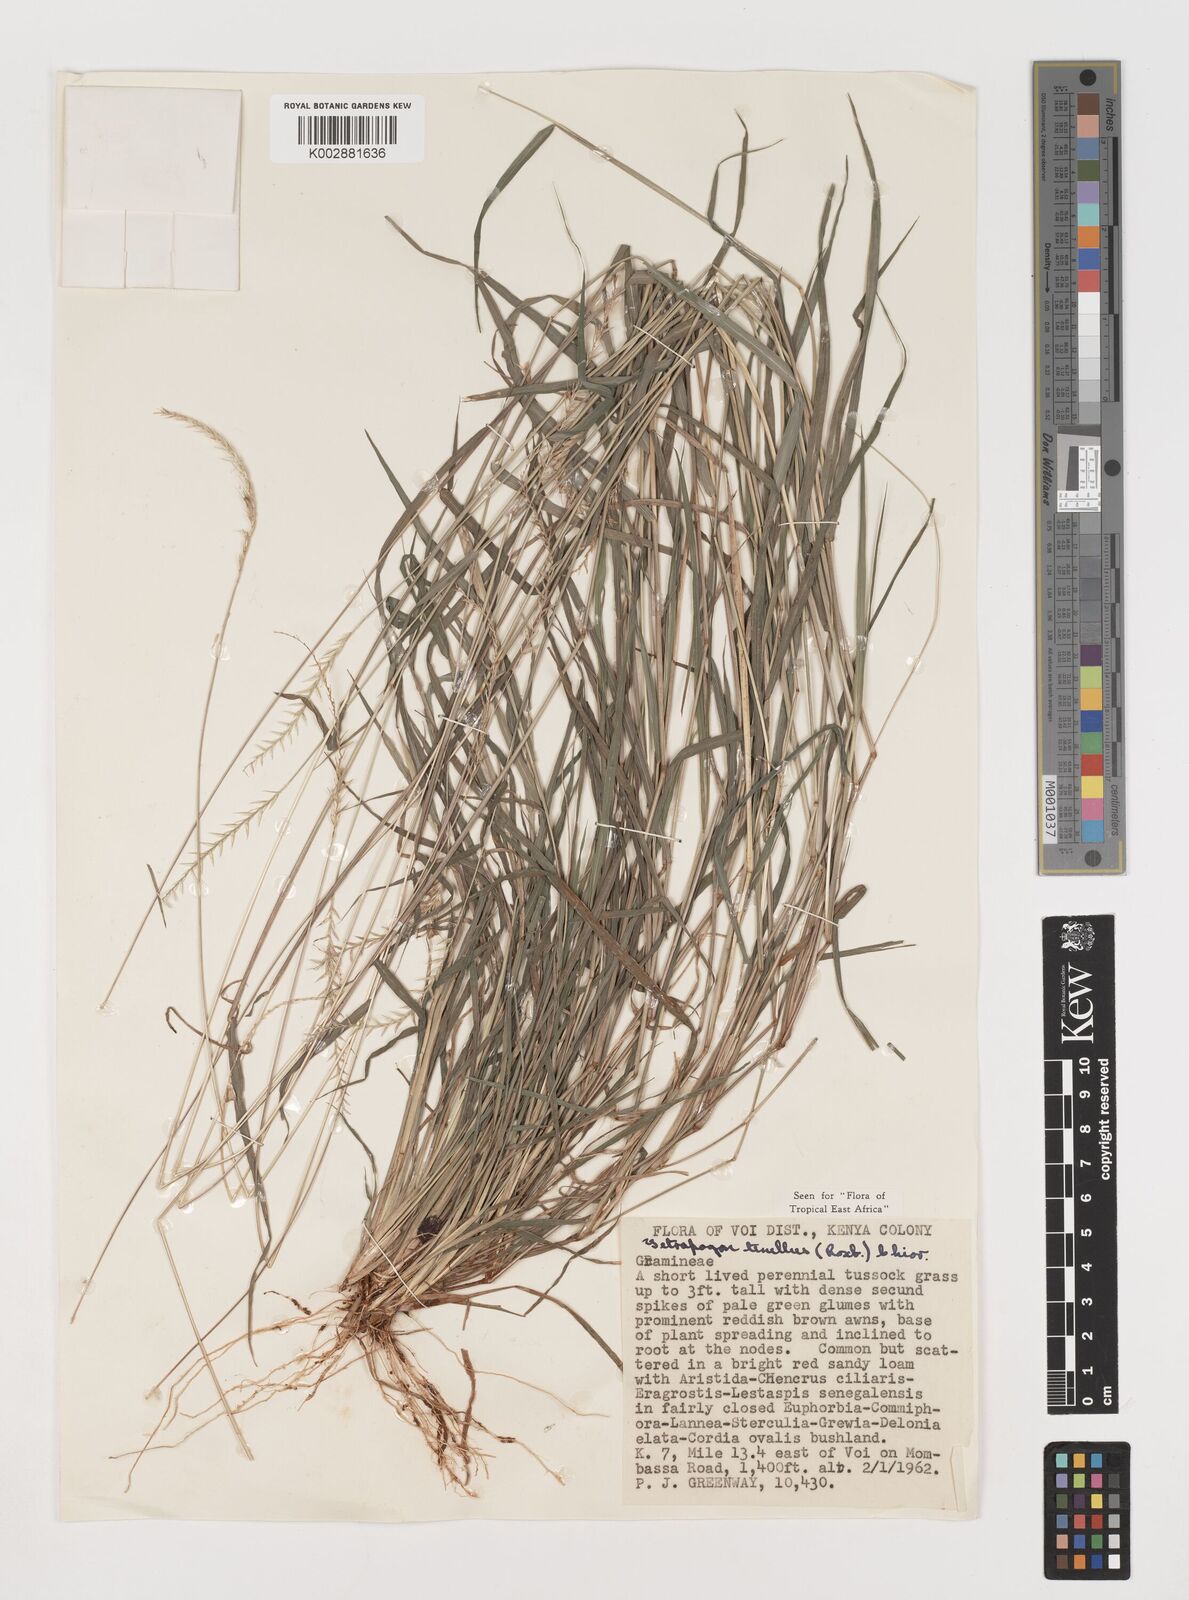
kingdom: Plantae
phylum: Tracheophyta
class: Liliopsida
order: Poales
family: Poaceae
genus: Tetrapogon
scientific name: Tetrapogon tenellus
